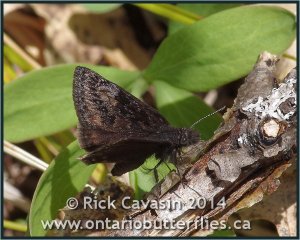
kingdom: Animalia
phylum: Arthropoda
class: Insecta
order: Lepidoptera
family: Hesperiidae
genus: Gesta
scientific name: Gesta
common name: Columbine Duskywing
